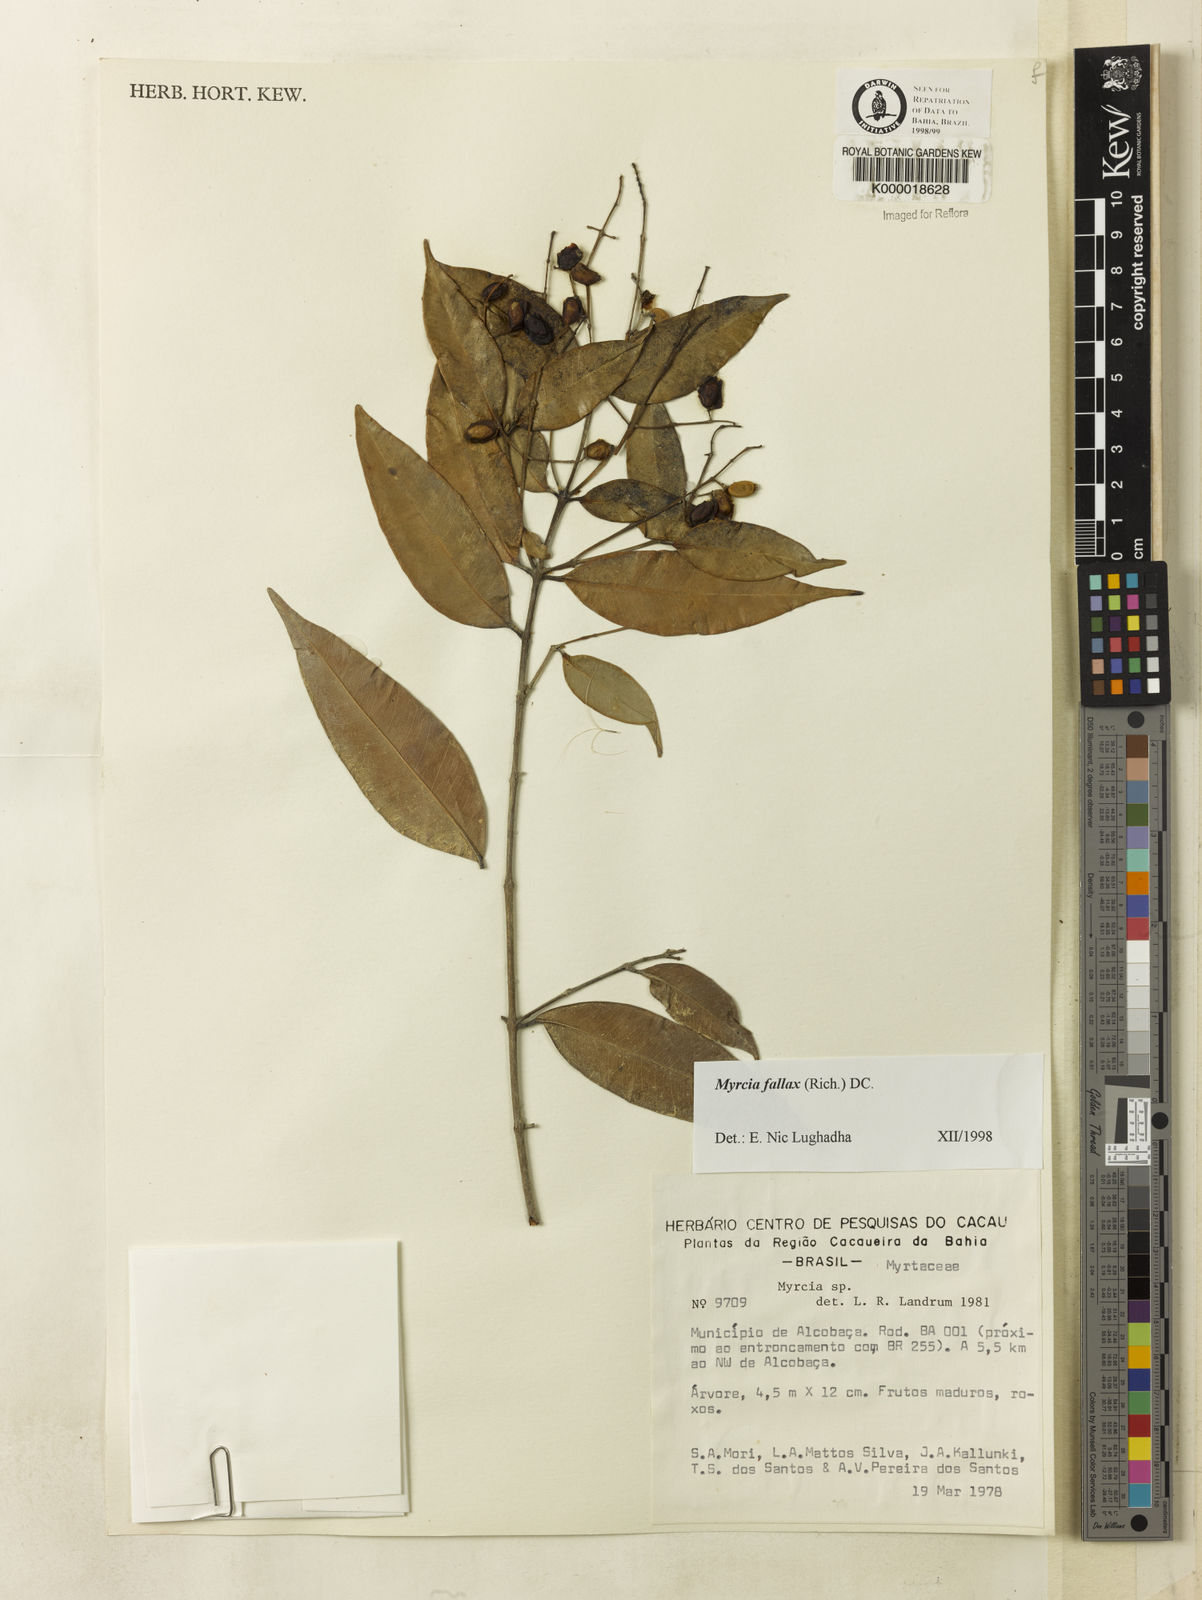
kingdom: Plantae
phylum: Tracheophyta
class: Magnoliopsida
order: Myrtales
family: Myrtaceae
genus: Myrcia
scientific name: Myrcia splendens
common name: Surinam cherry
